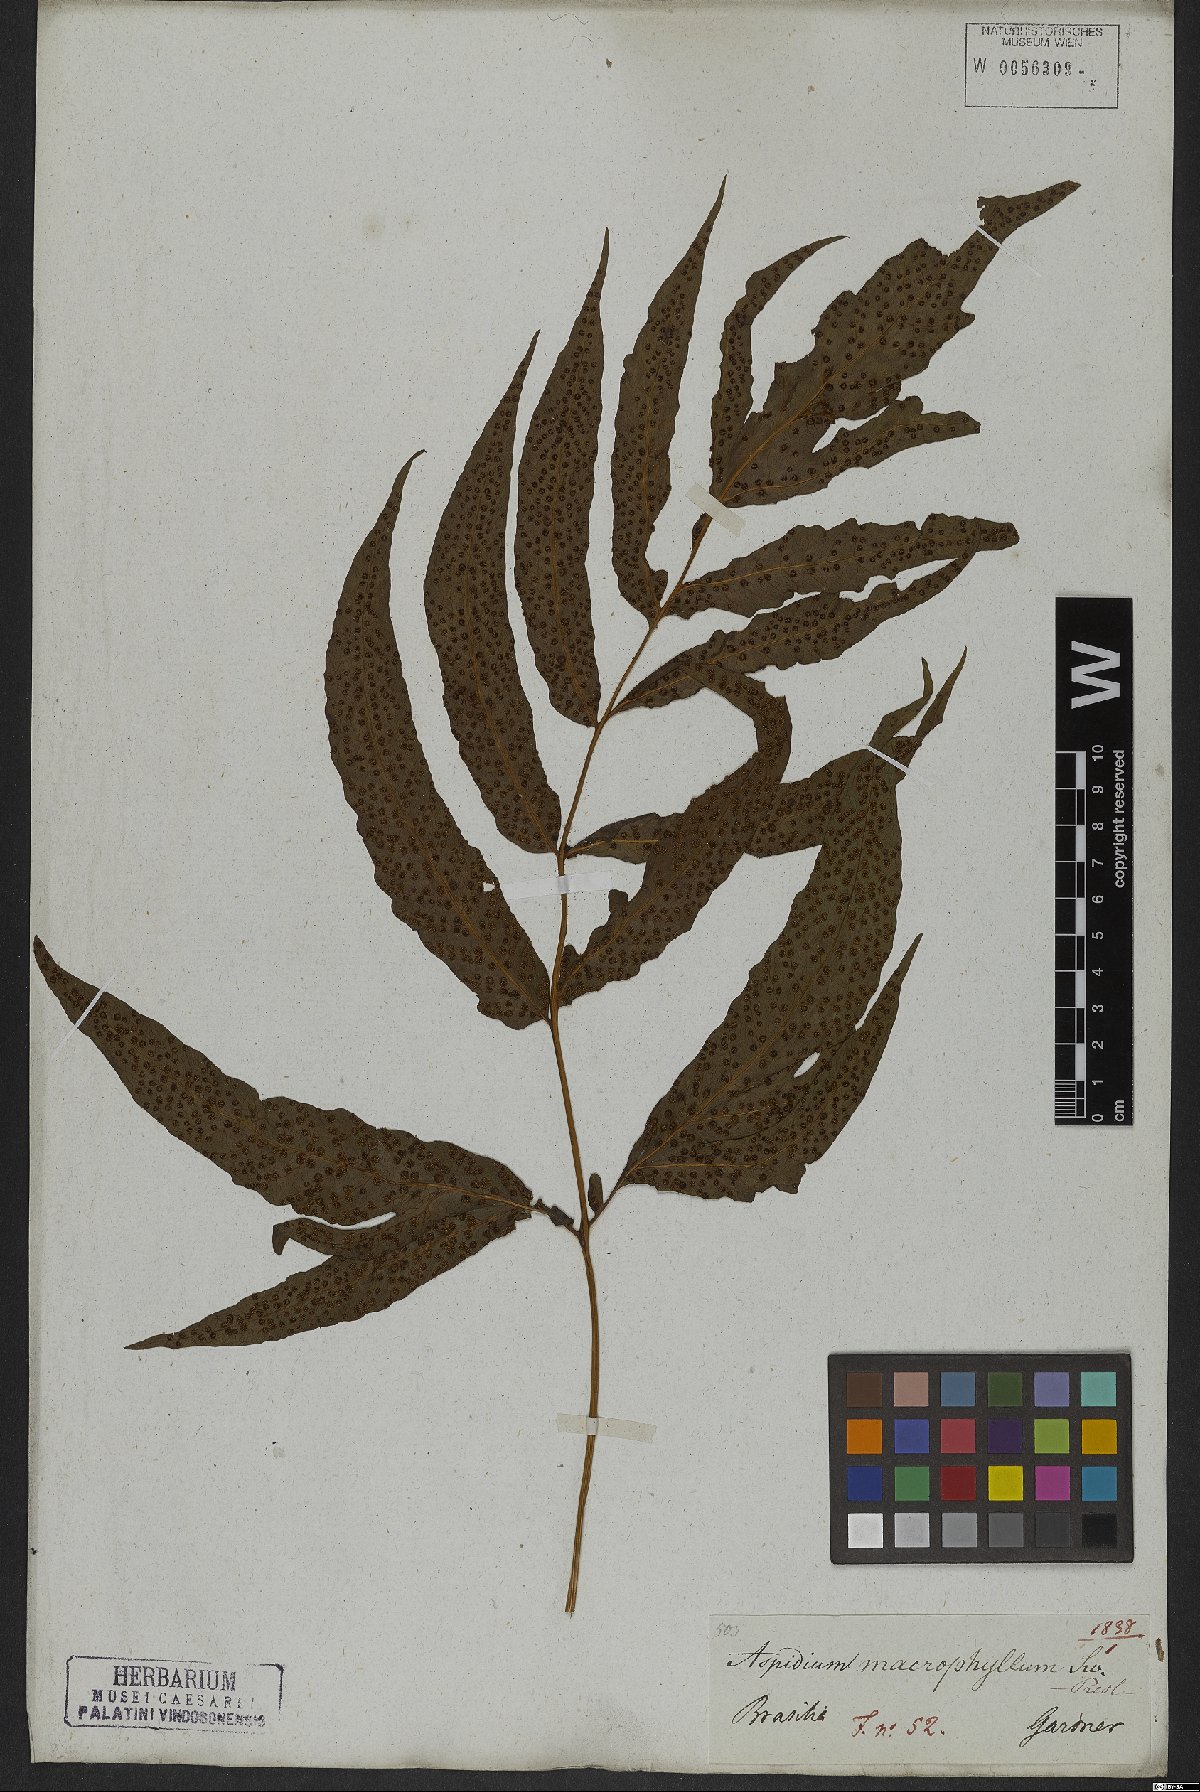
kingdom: Plantae
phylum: Tracheophyta
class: Polypodiopsida
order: Polypodiales
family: Tectariaceae
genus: Tectaria
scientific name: Tectaria incisa
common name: Incised halberd fern
